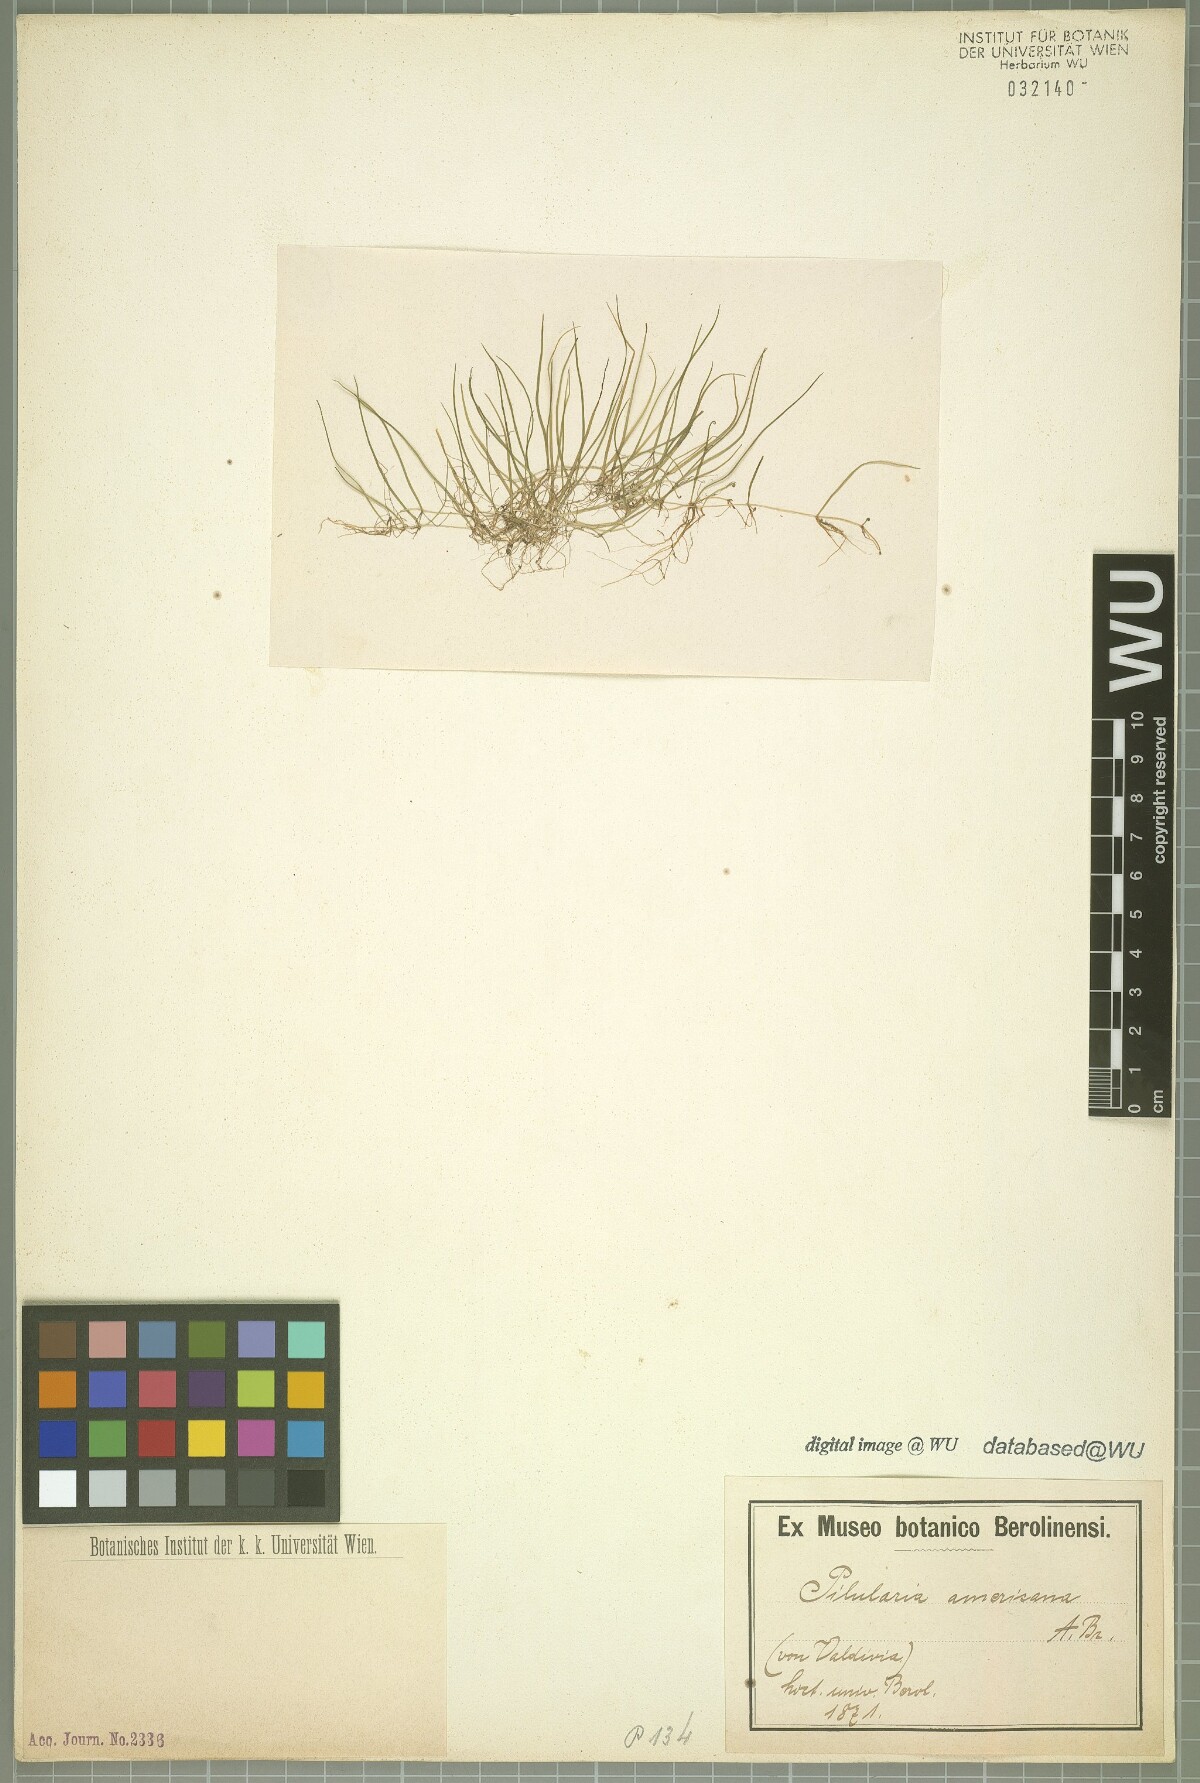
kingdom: Plantae
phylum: Tracheophyta
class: Polypodiopsida
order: Salviniales
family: Marsileaceae
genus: Pilularia
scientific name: Pilularia americana
